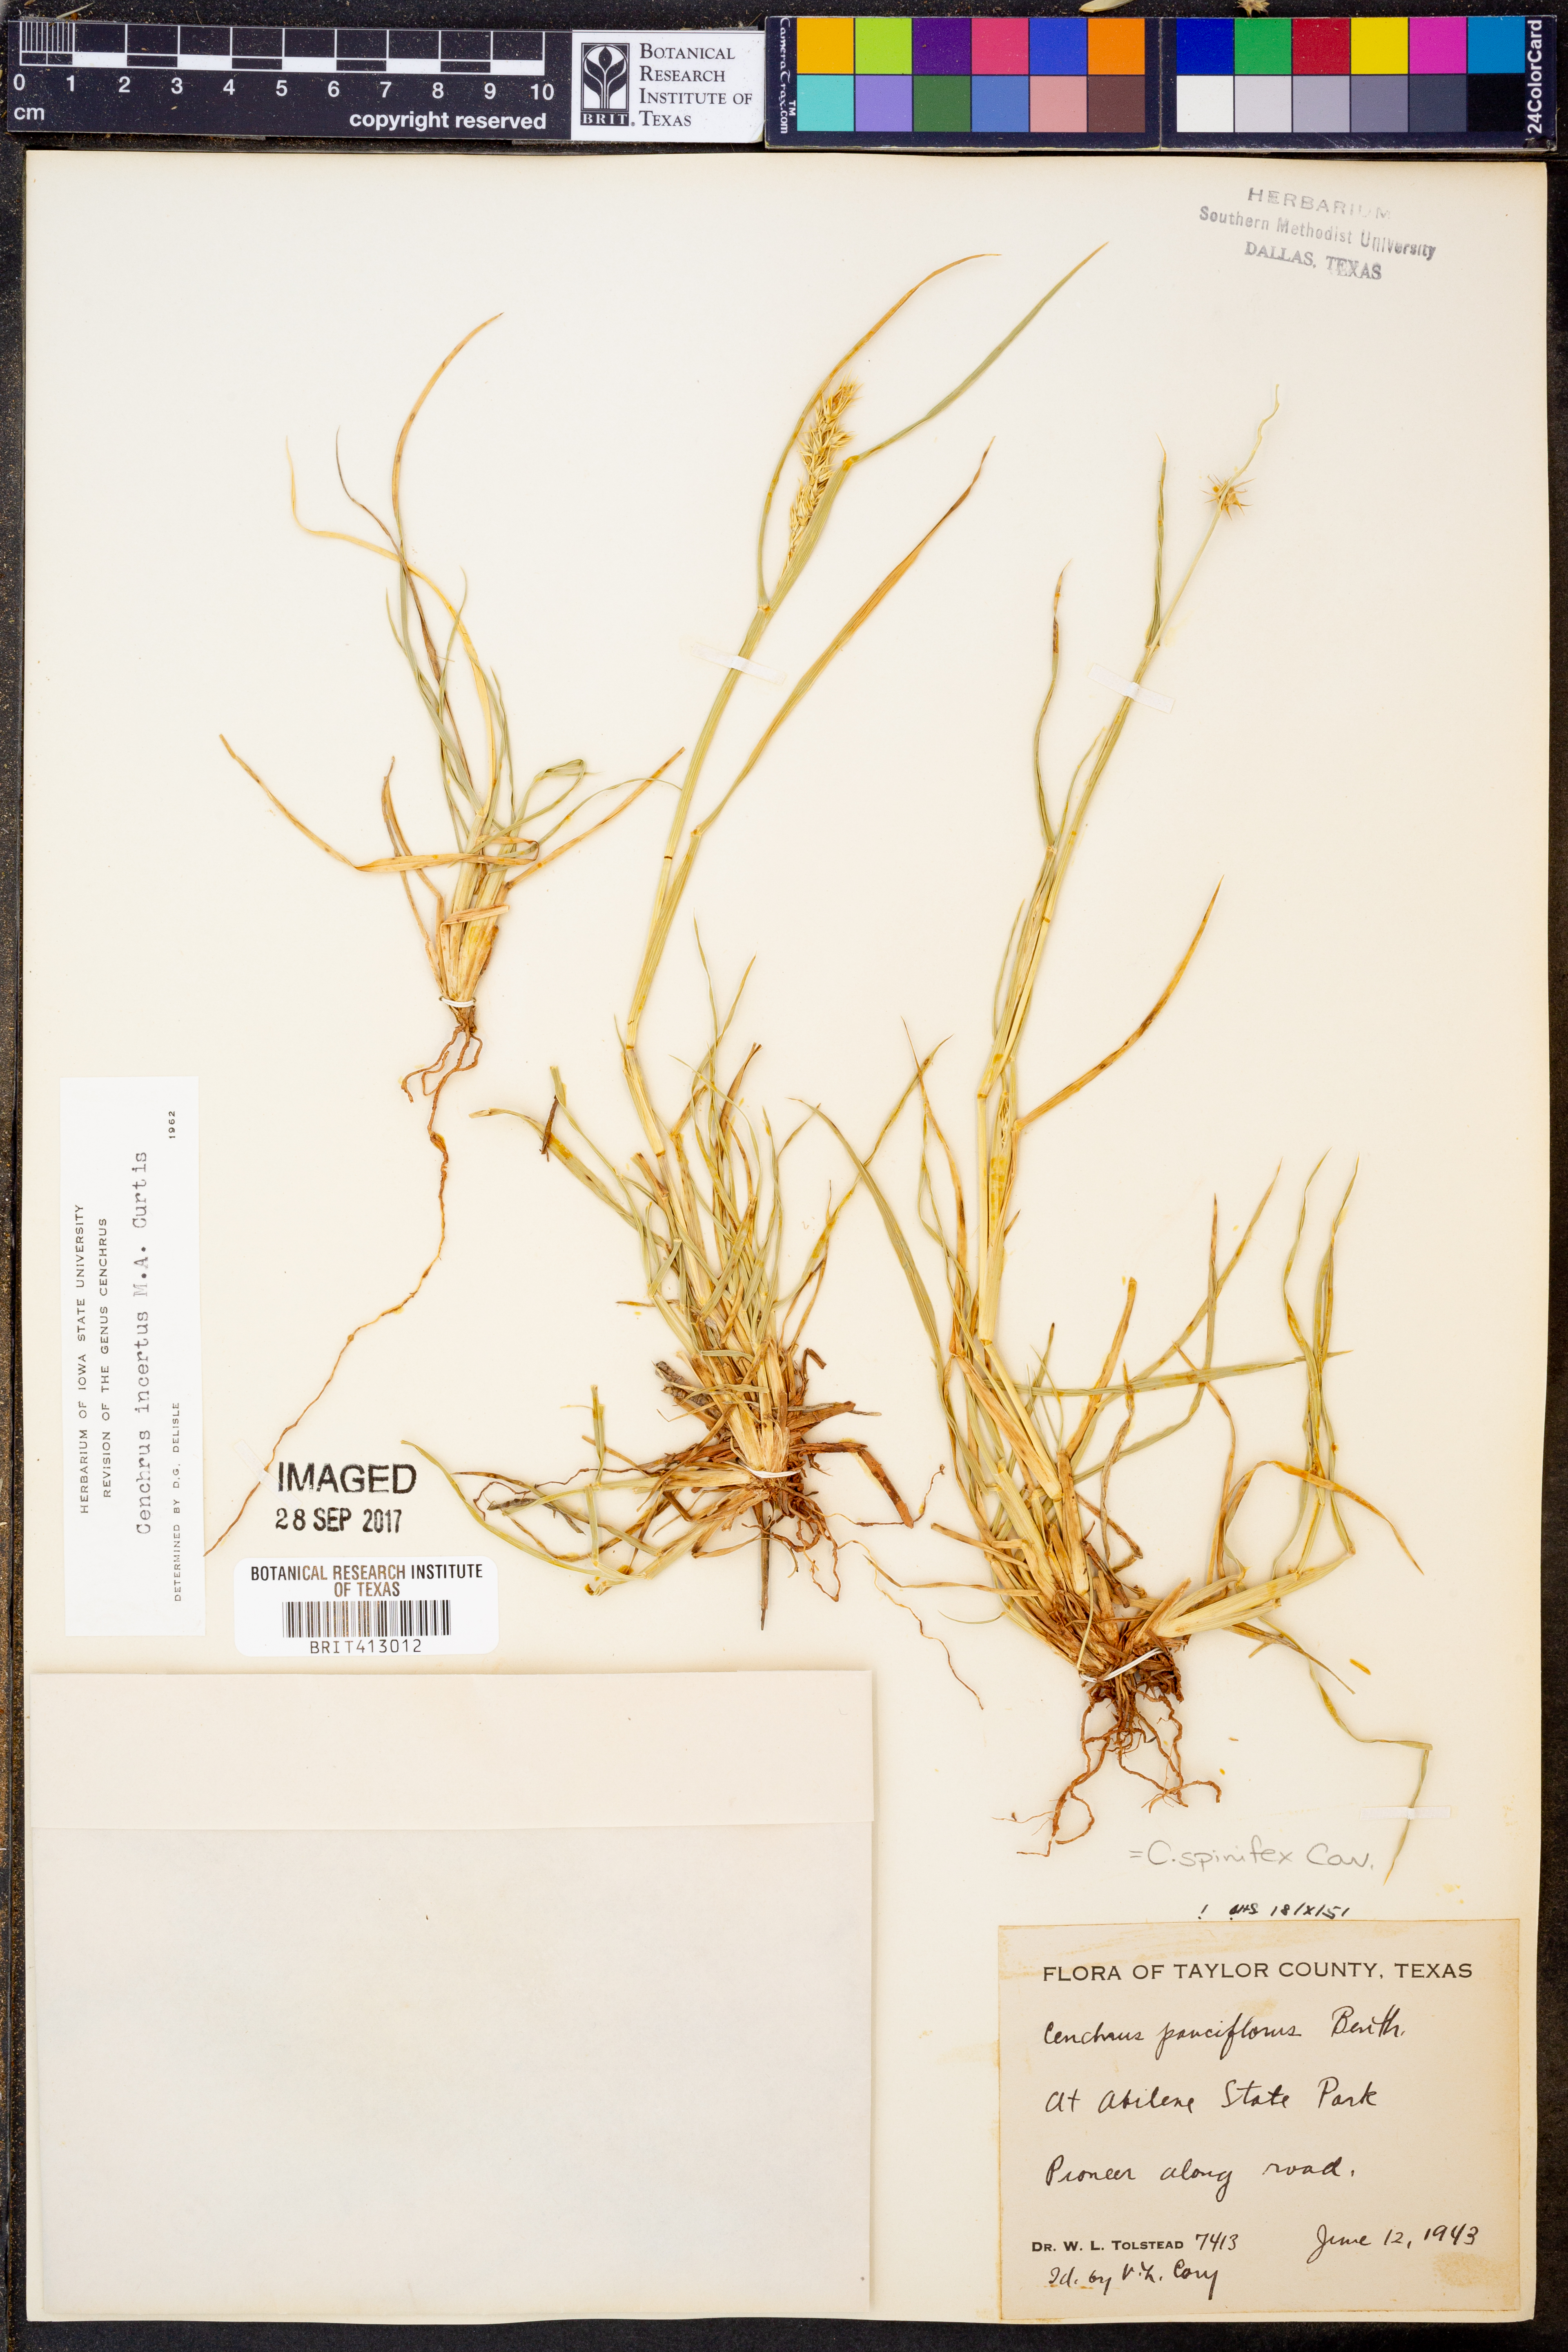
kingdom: Plantae
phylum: Tracheophyta
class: Liliopsida
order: Poales
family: Poaceae
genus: Cenchrus
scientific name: Cenchrus spinifex
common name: Coast sandbur
